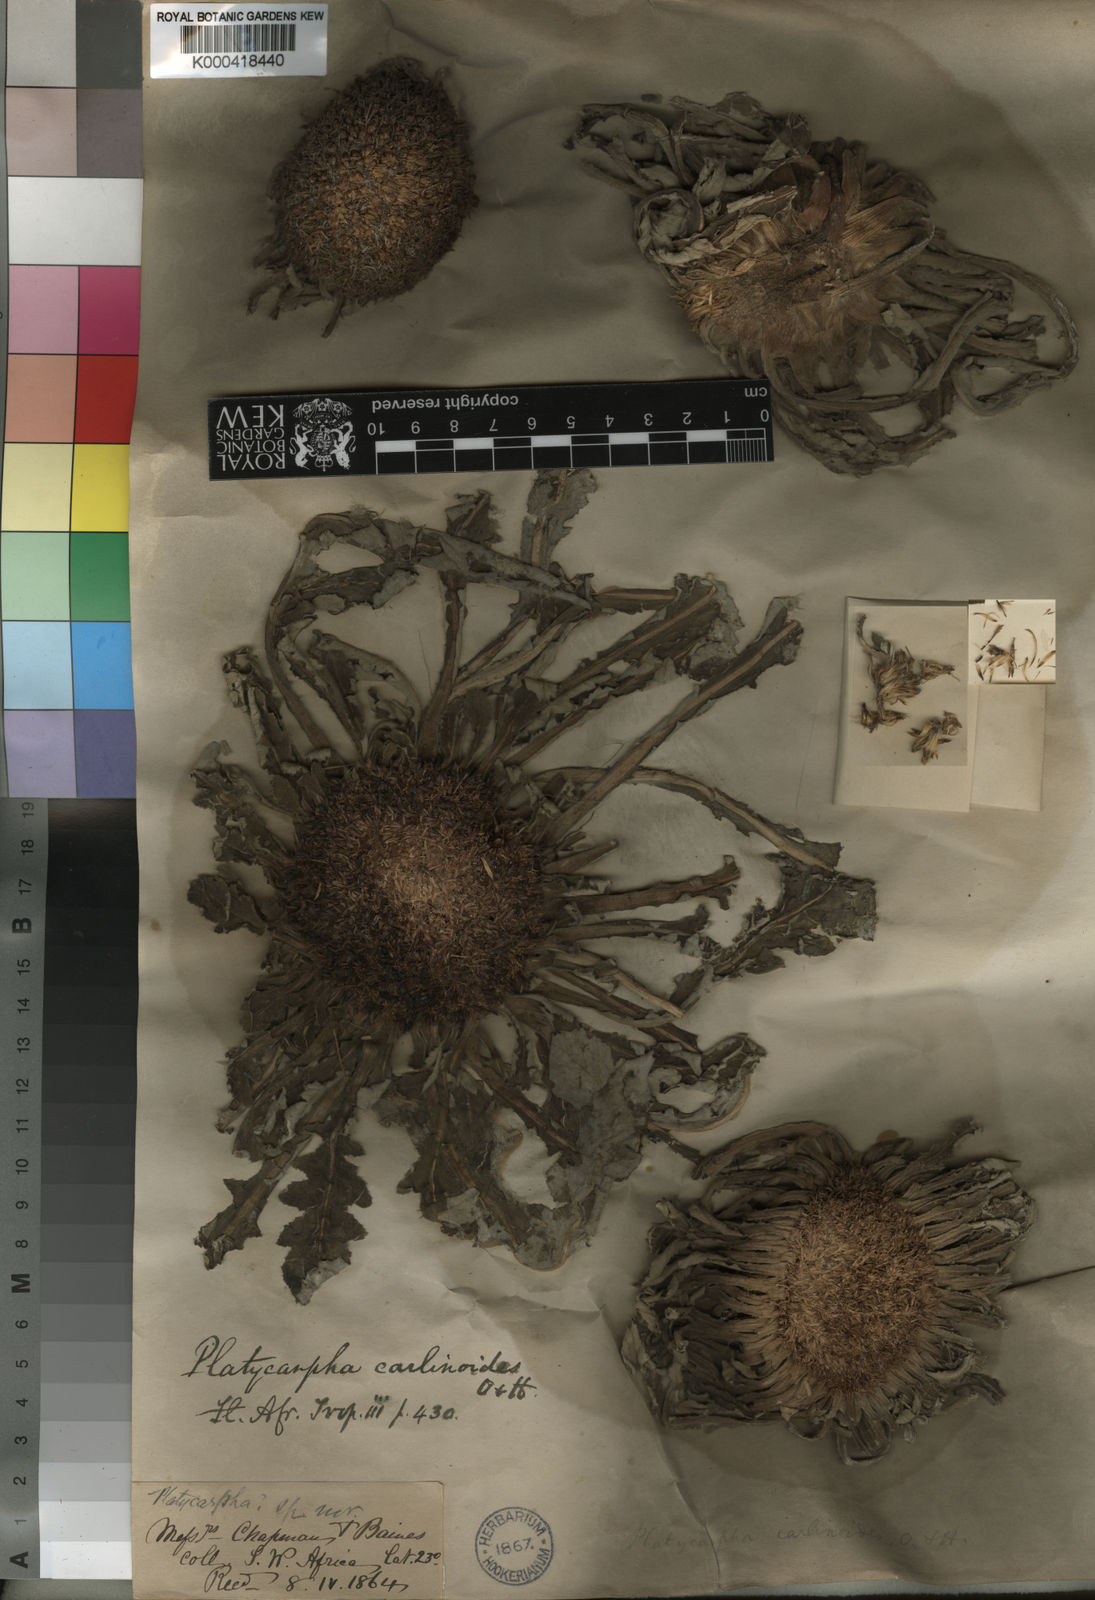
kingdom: Plantae
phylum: Tracheophyta
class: Magnoliopsida
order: Asterales
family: Asteraceae
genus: Platycarphella
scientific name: Platycarphella carlinoides
